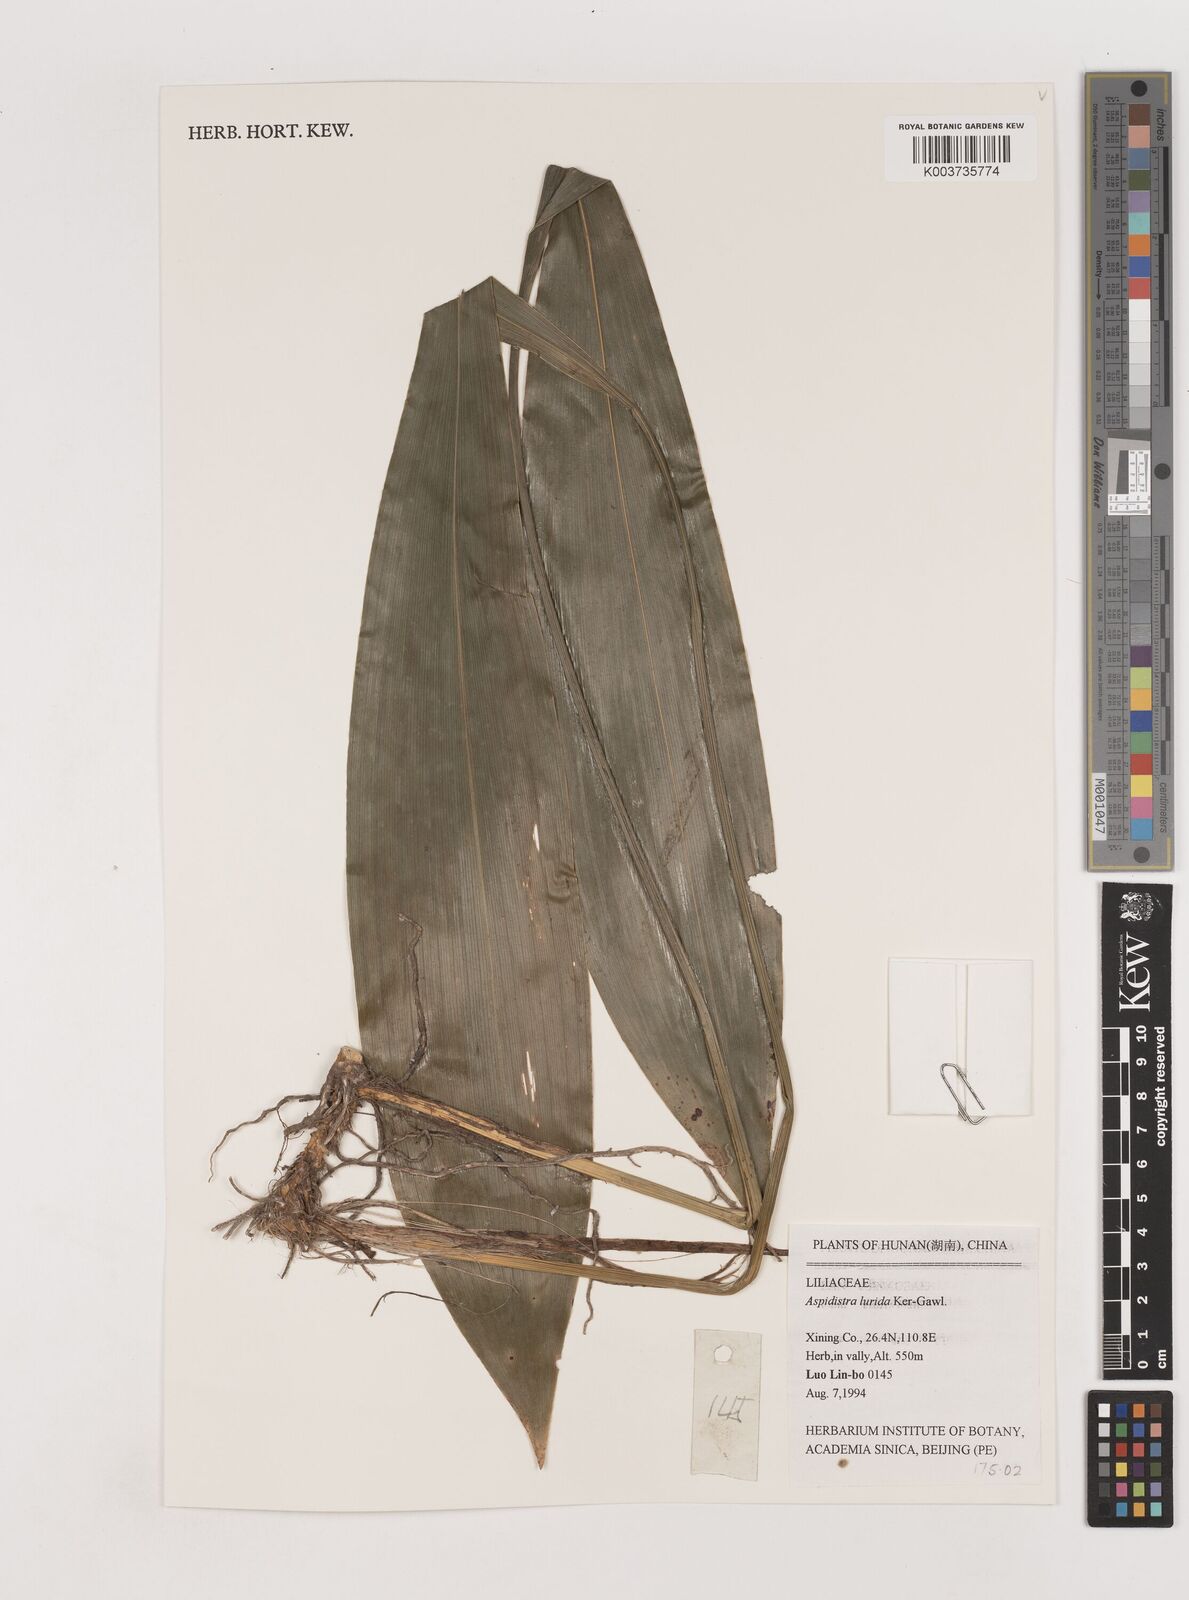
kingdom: Plantae
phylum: Tracheophyta
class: Liliopsida
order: Asparagales
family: Asparagaceae
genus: Aspidistra
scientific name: Aspidistra lurida
